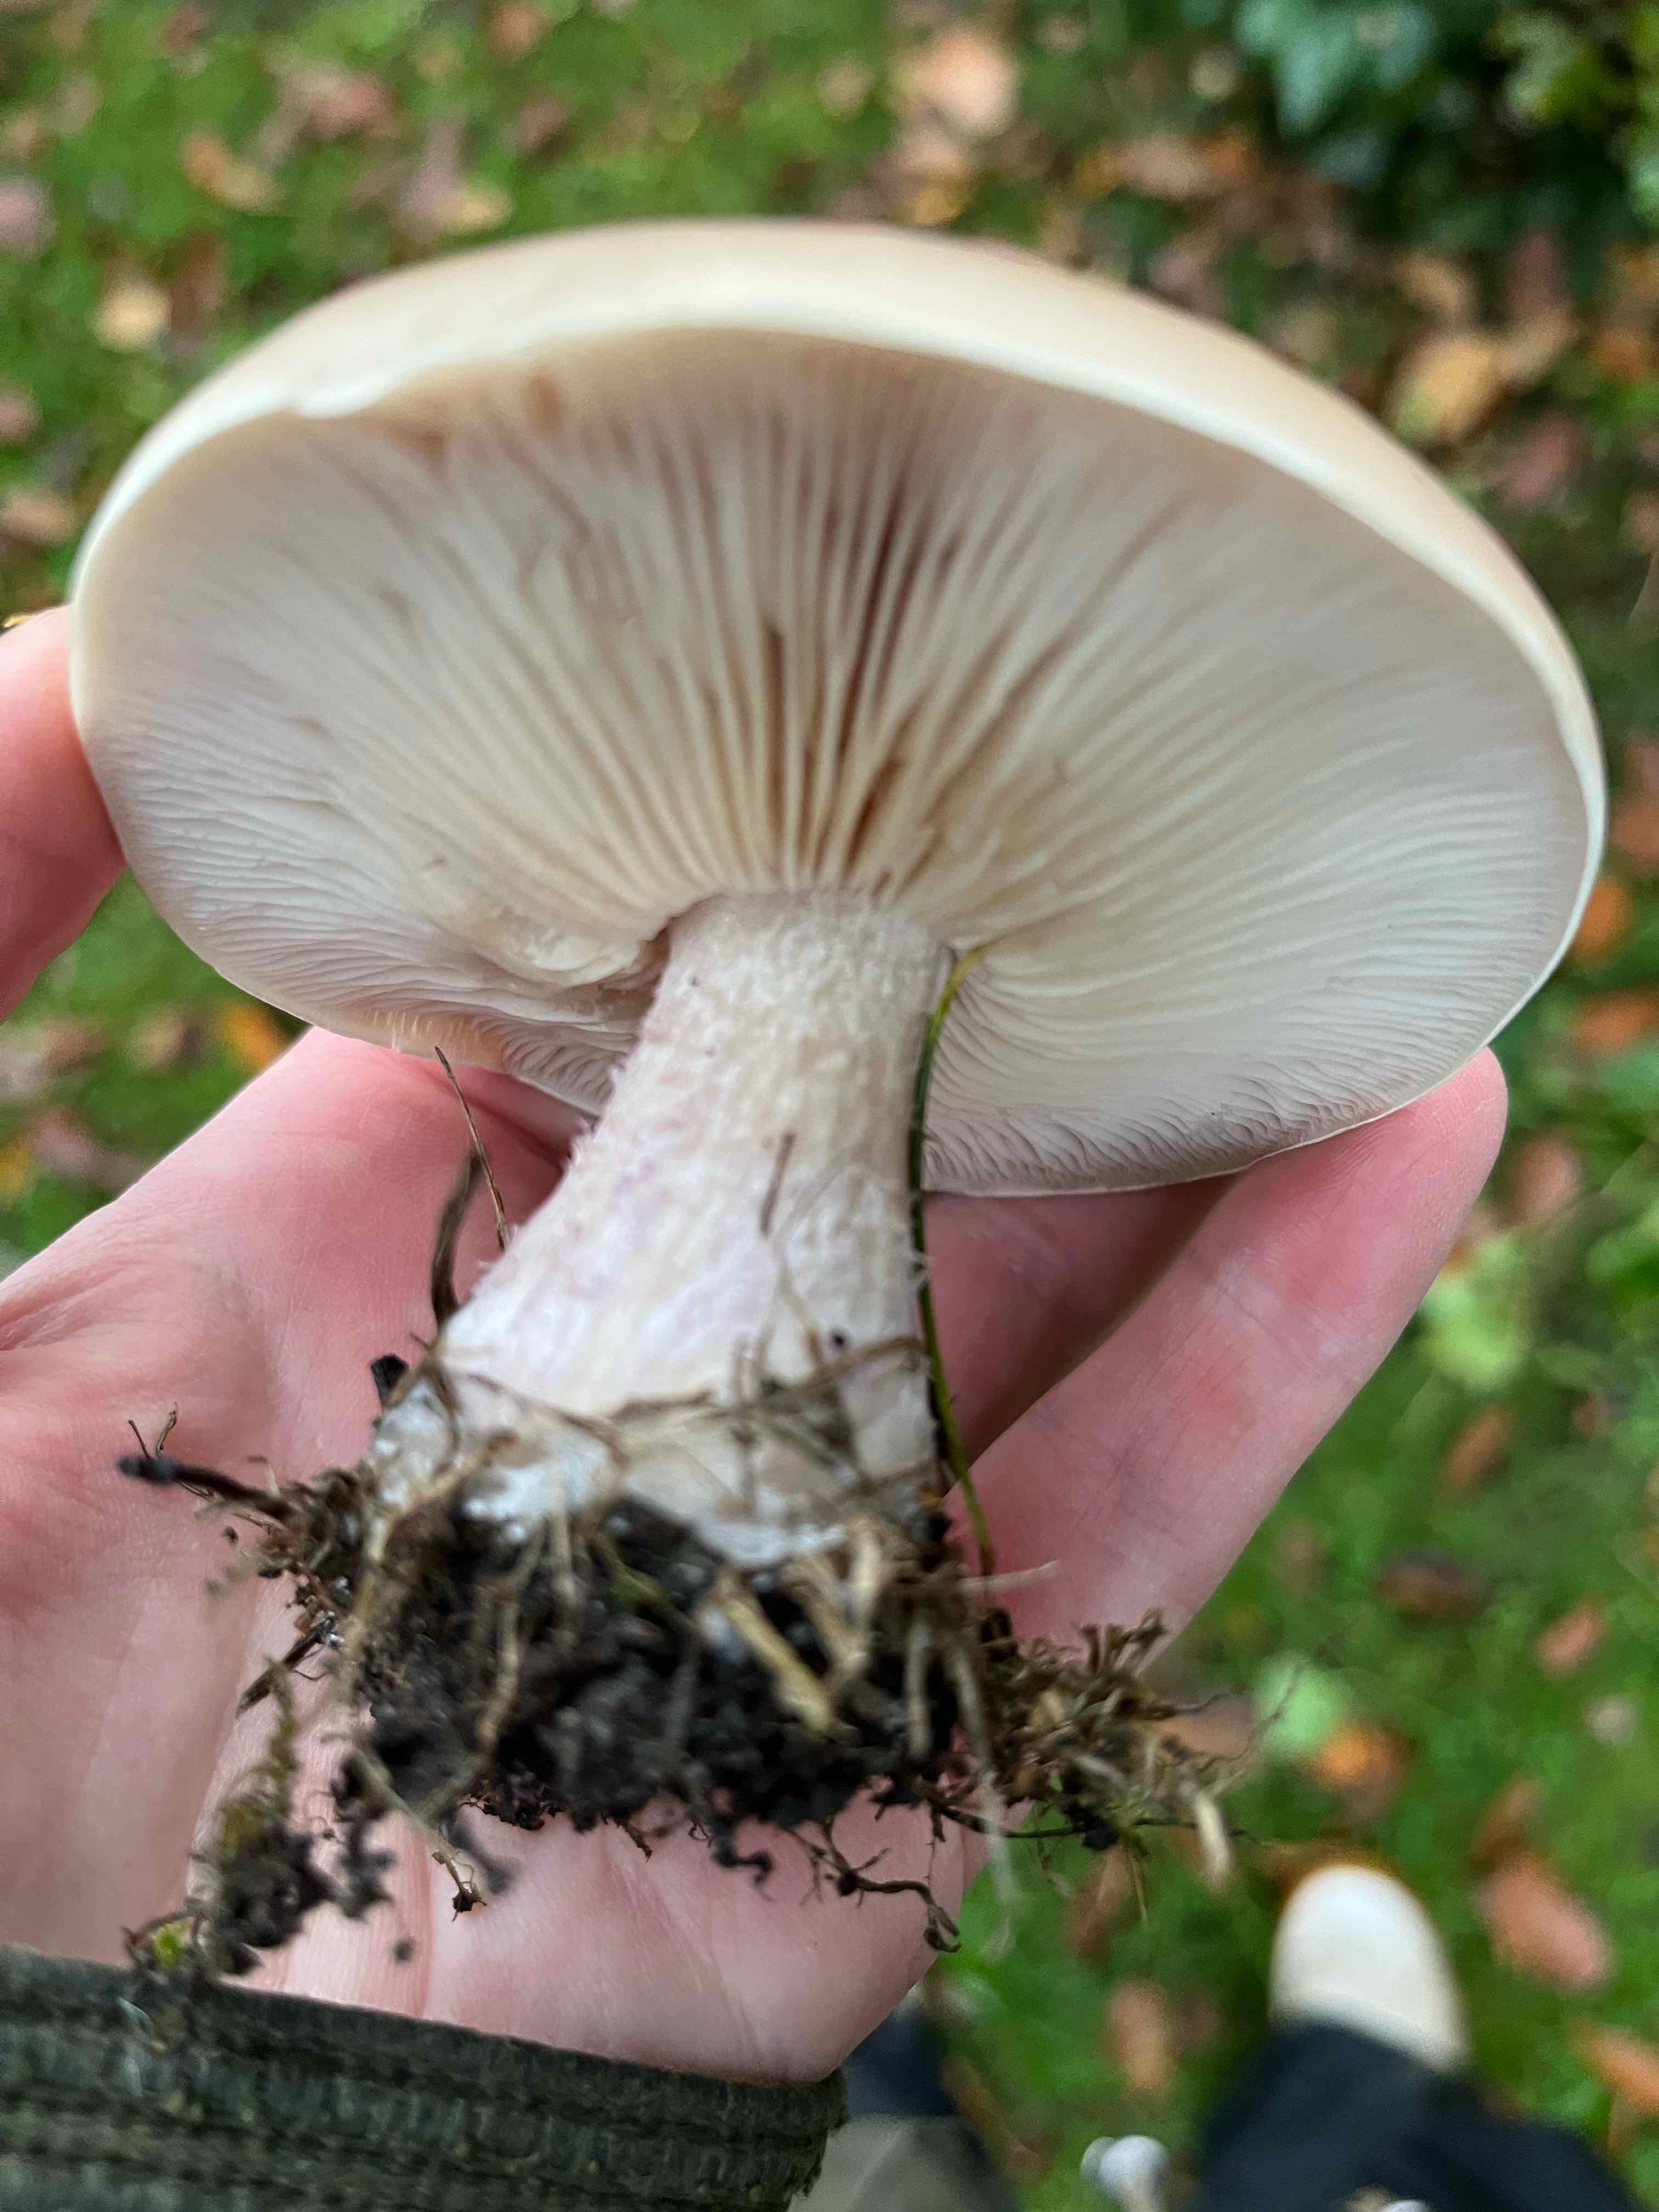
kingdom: Fungi
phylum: Basidiomycota
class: Agaricomycetes
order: Agaricales
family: Tricholomataceae
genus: Lepista
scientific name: Lepista personata
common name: bleg hekseringshat
